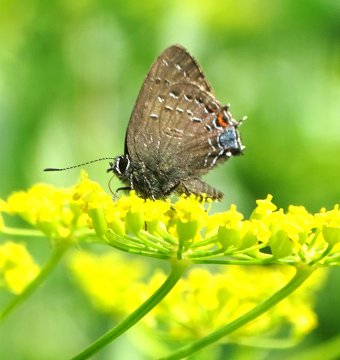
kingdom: Animalia
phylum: Arthropoda
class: Insecta
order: Lepidoptera
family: Lycaenidae
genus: Satyrium
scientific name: Satyrium calanus
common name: Banded Hairstreak
